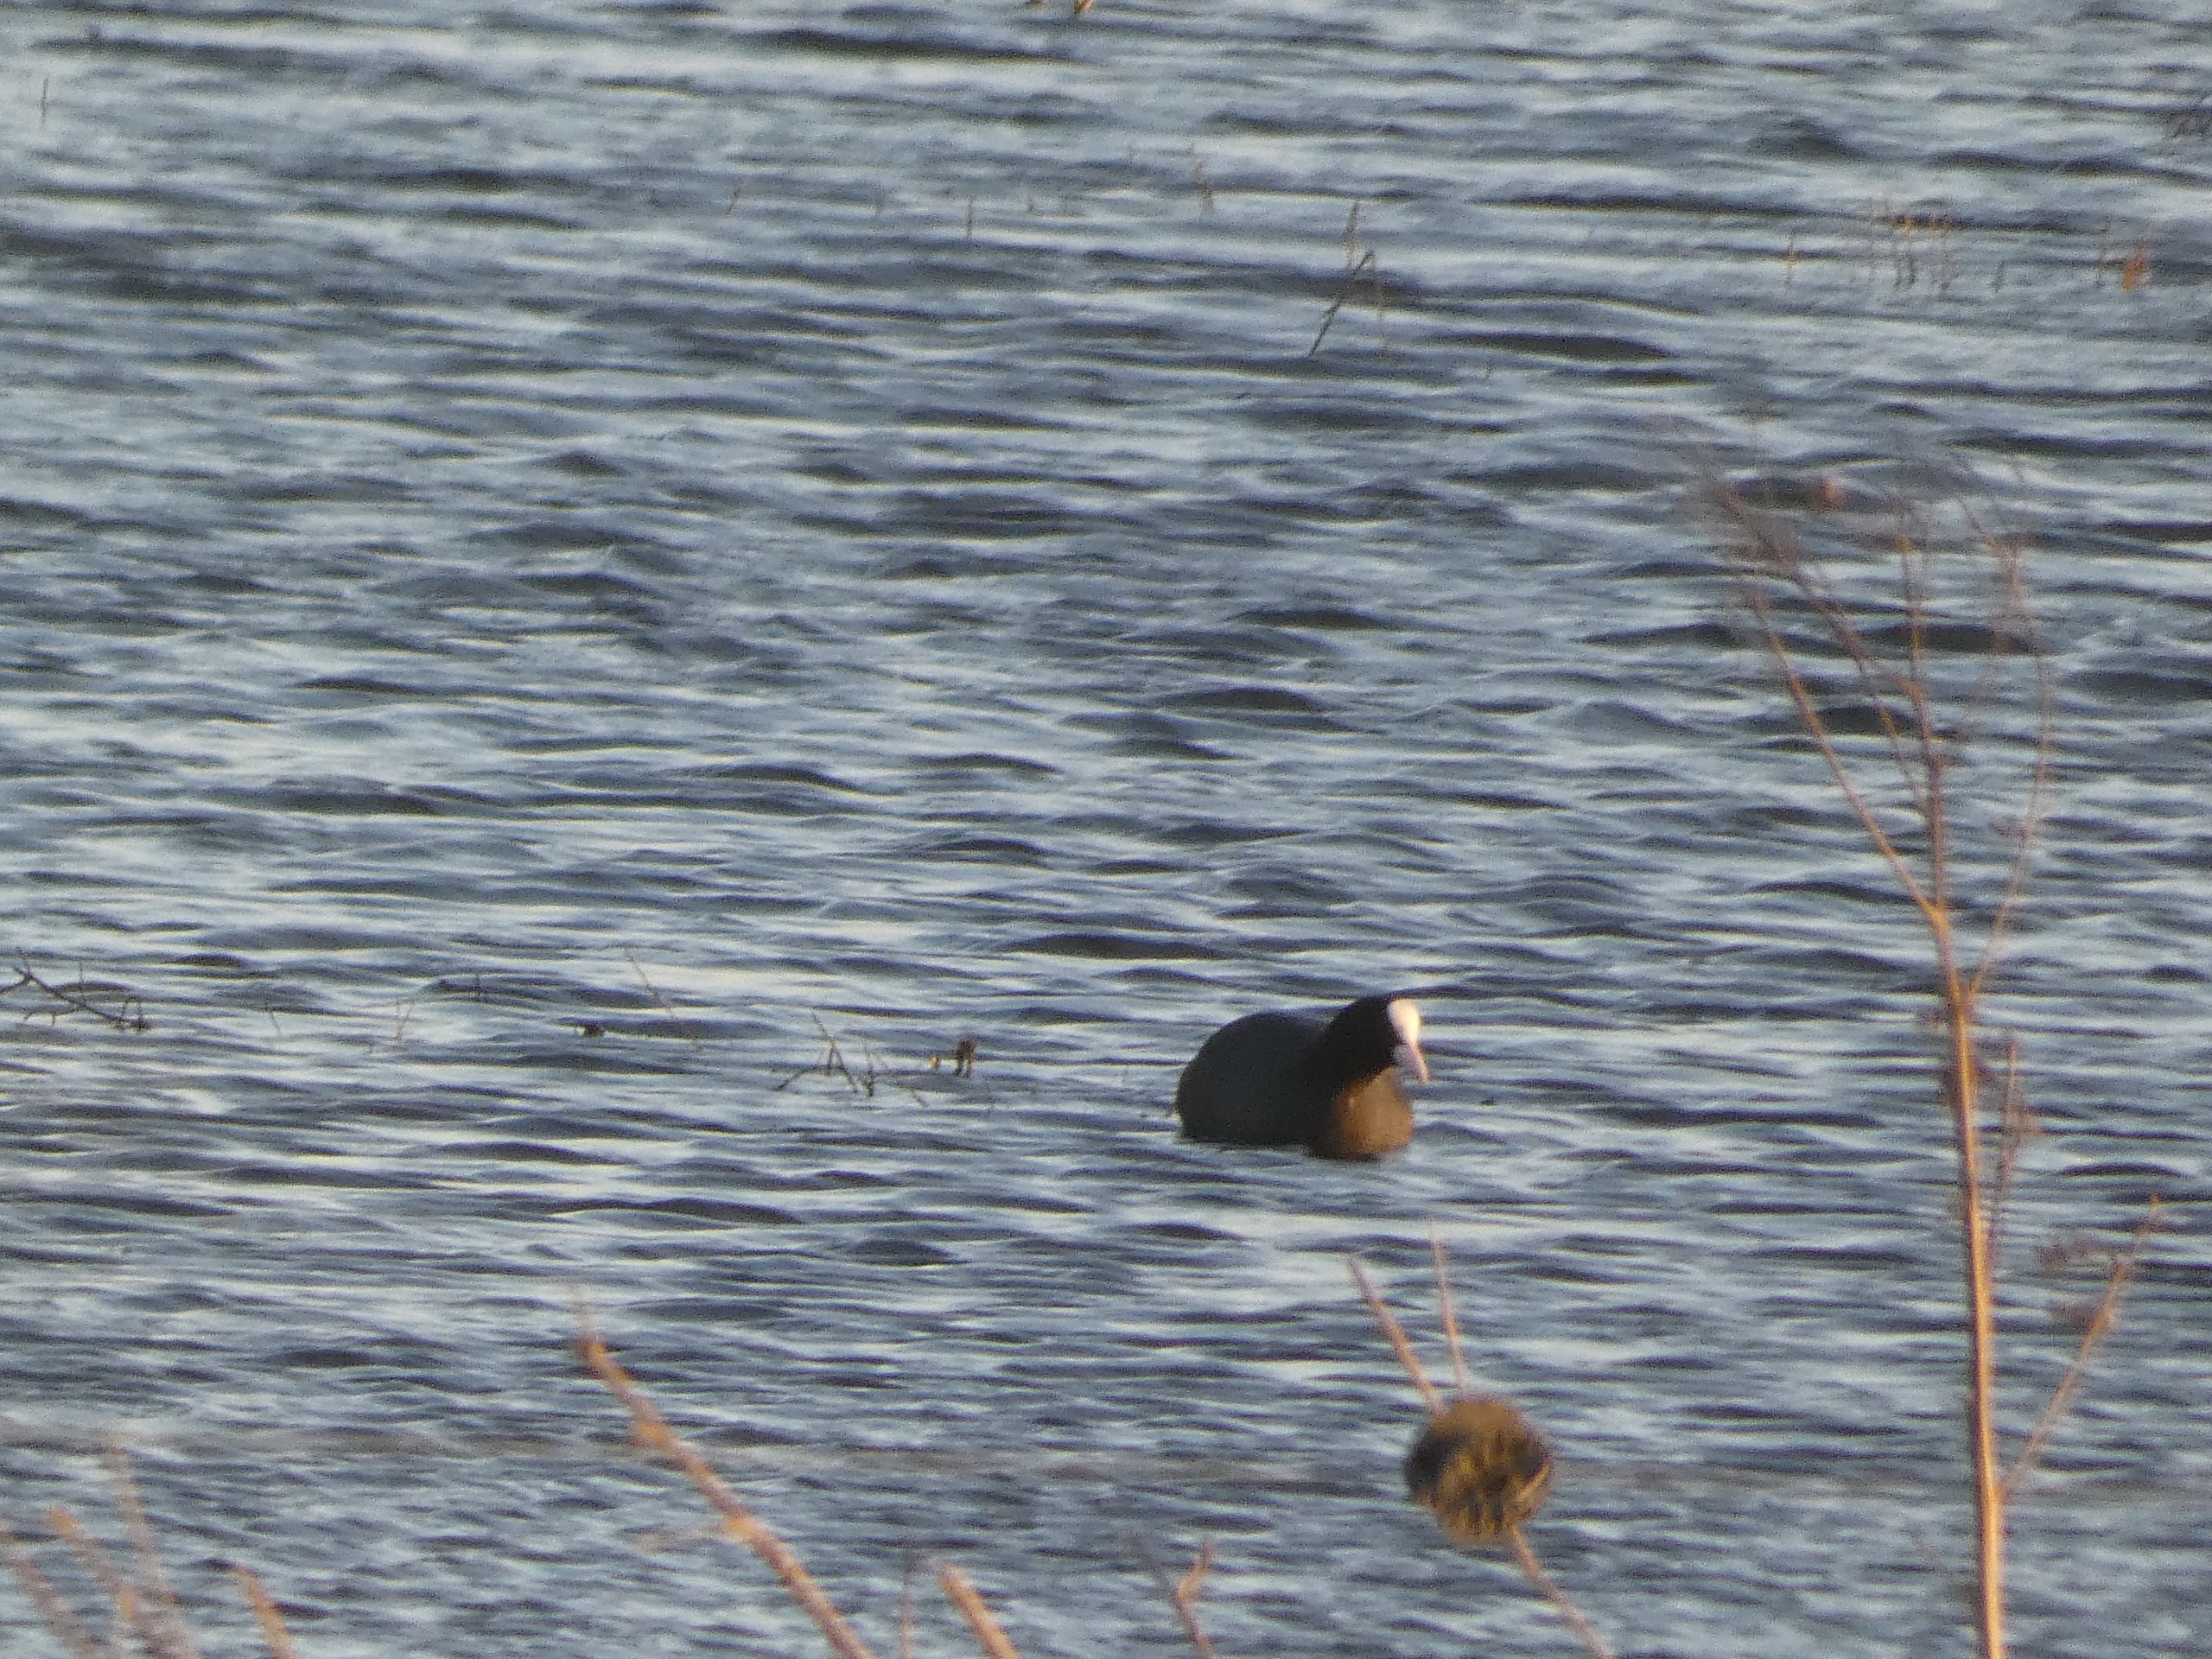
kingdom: Animalia
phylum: Chordata
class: Aves
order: Gruiformes
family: Rallidae
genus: Fulica
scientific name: Fulica atra
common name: Blishøne
